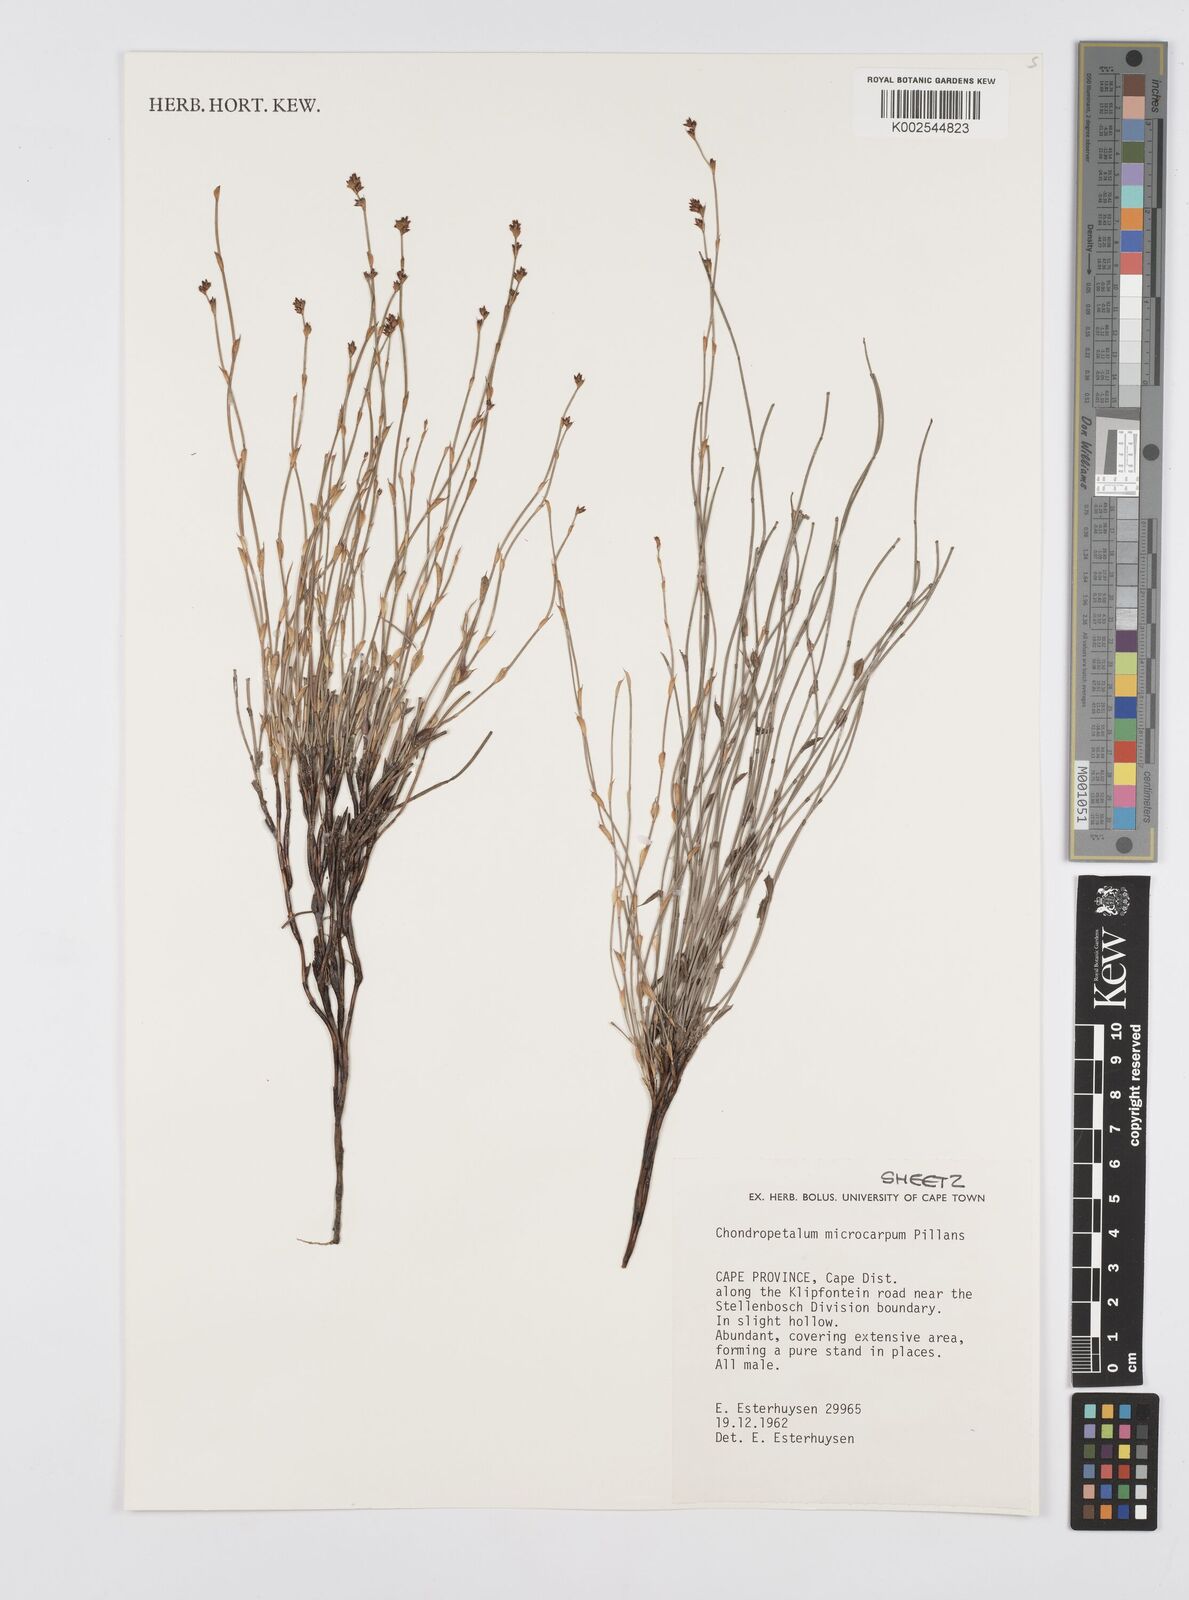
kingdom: Plantae
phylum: Tracheophyta
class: Liliopsida
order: Poales
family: Restionaceae
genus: Elegia
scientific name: Elegia microcarpa
